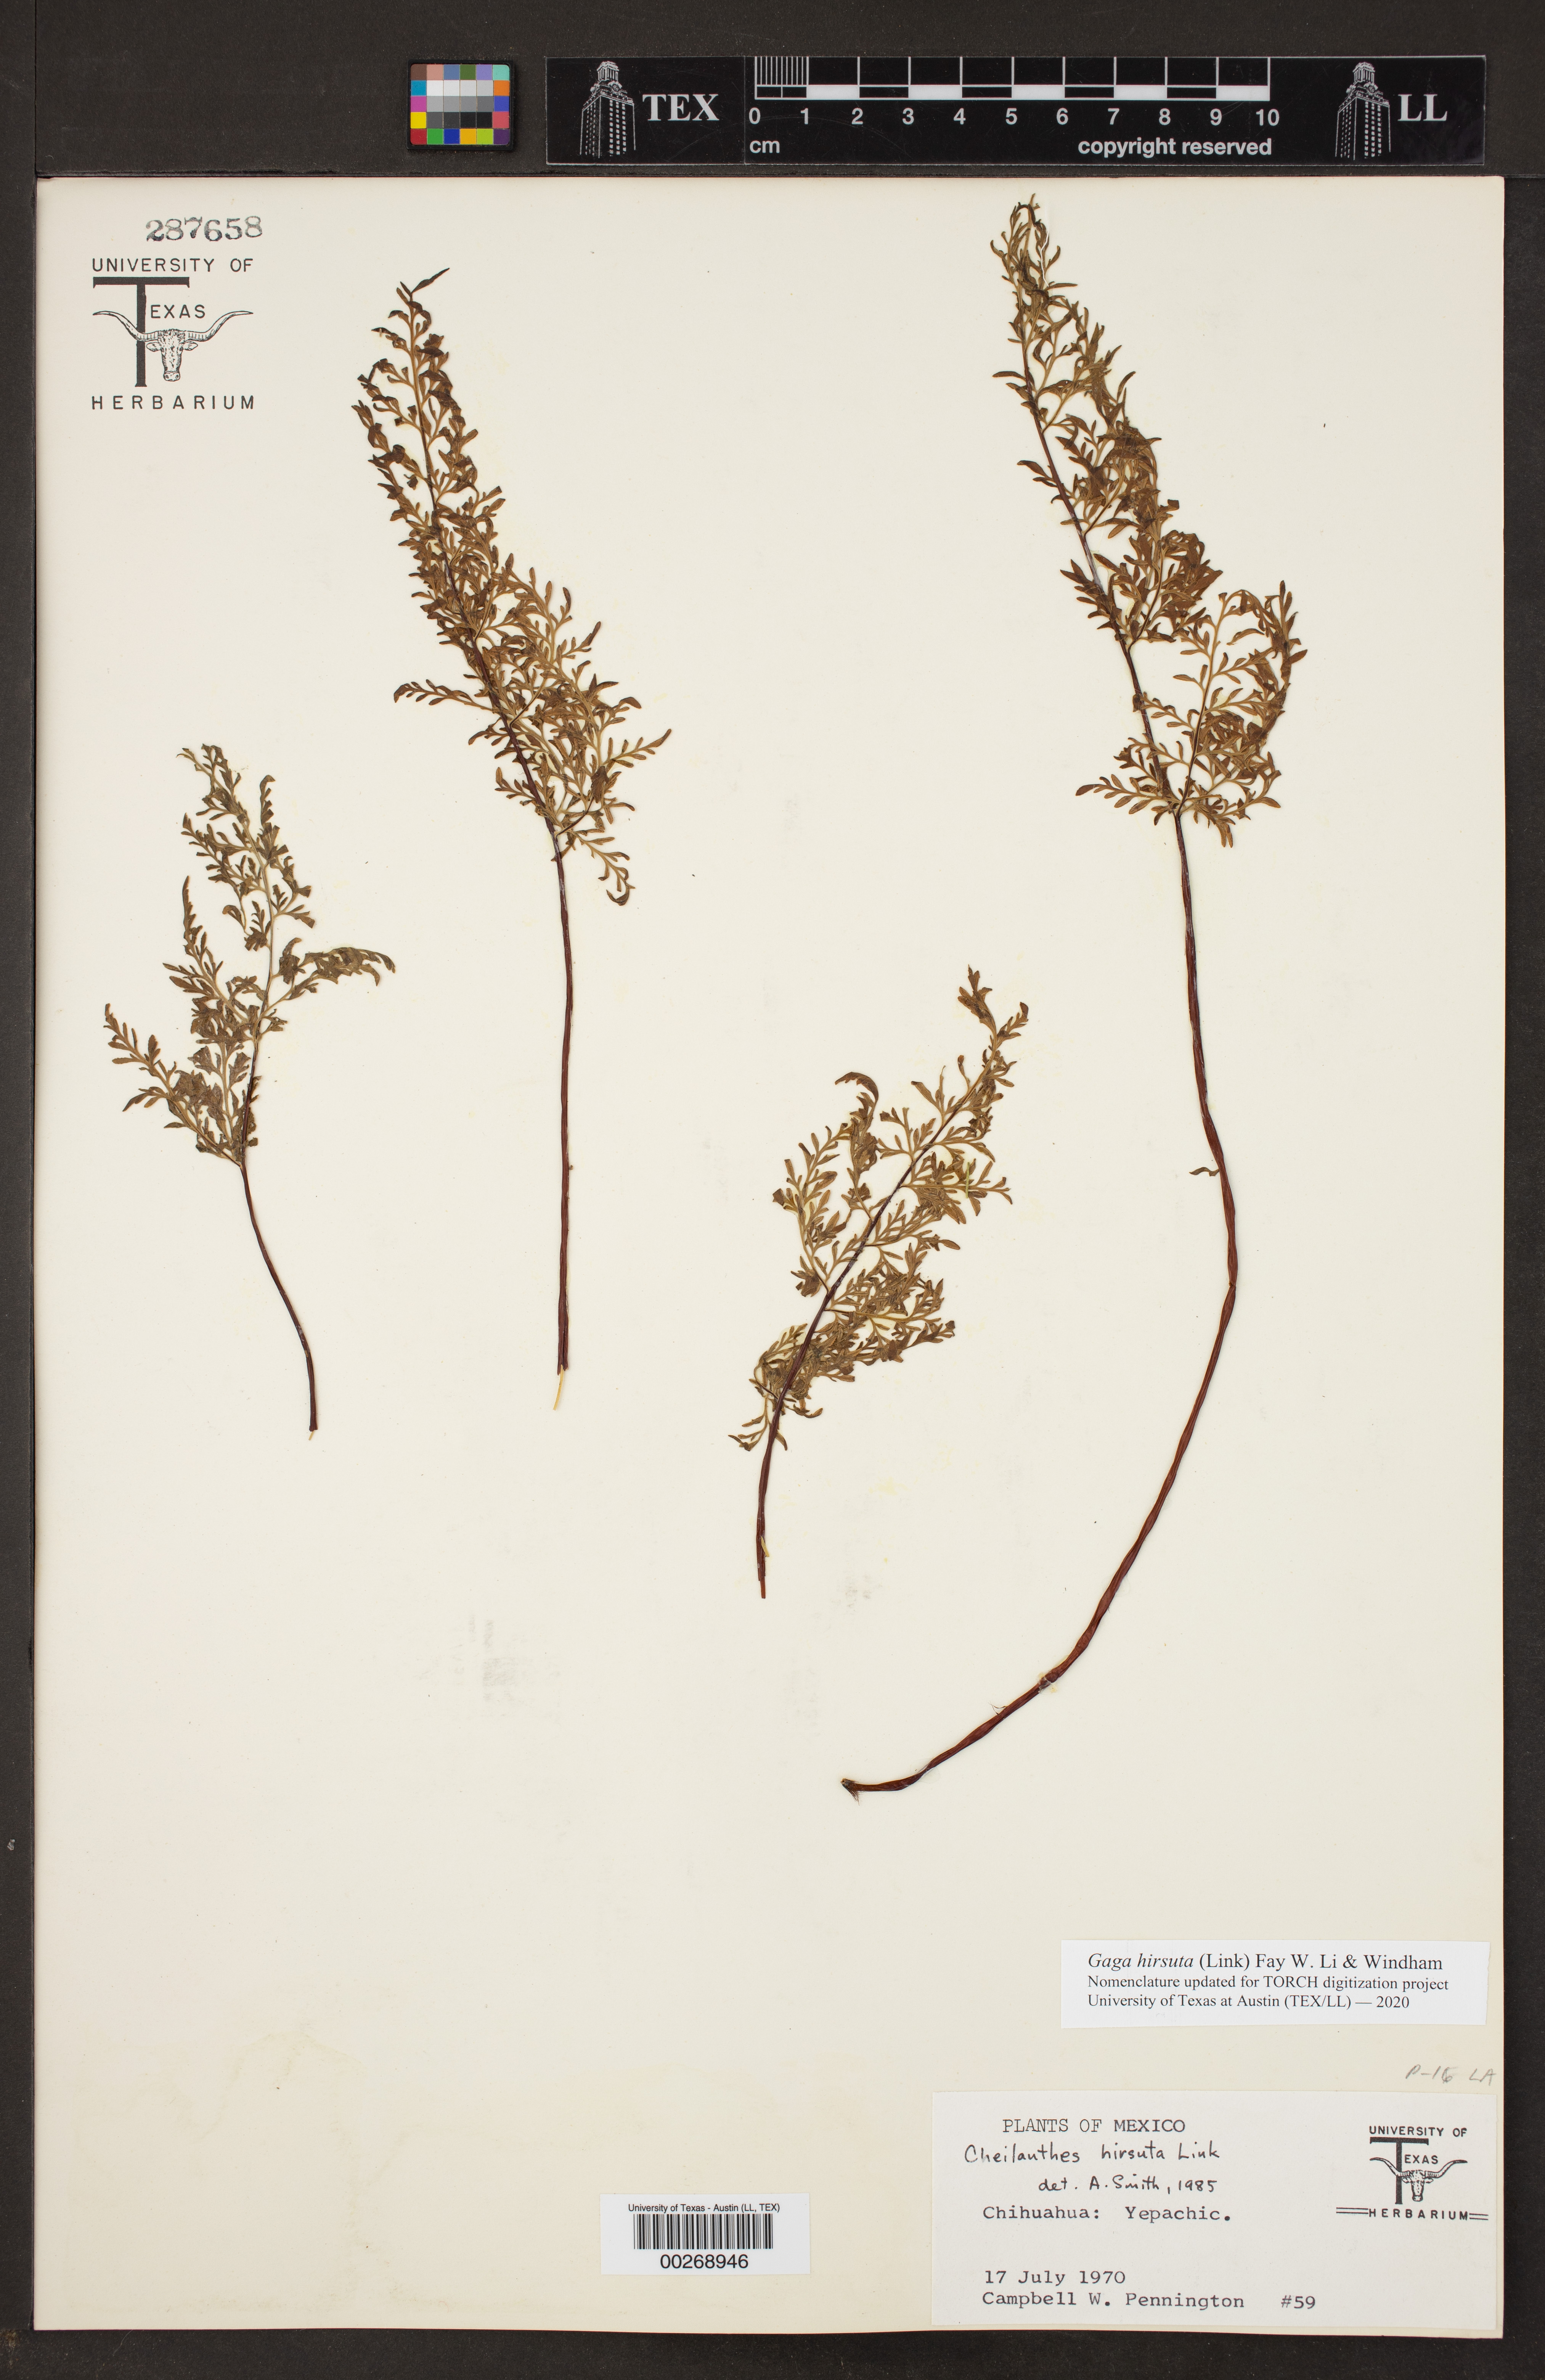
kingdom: Plantae
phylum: Tracheophyta
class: Polypodiopsida
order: Polypodiales
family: Pteridaceae
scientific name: Pteridaceae
